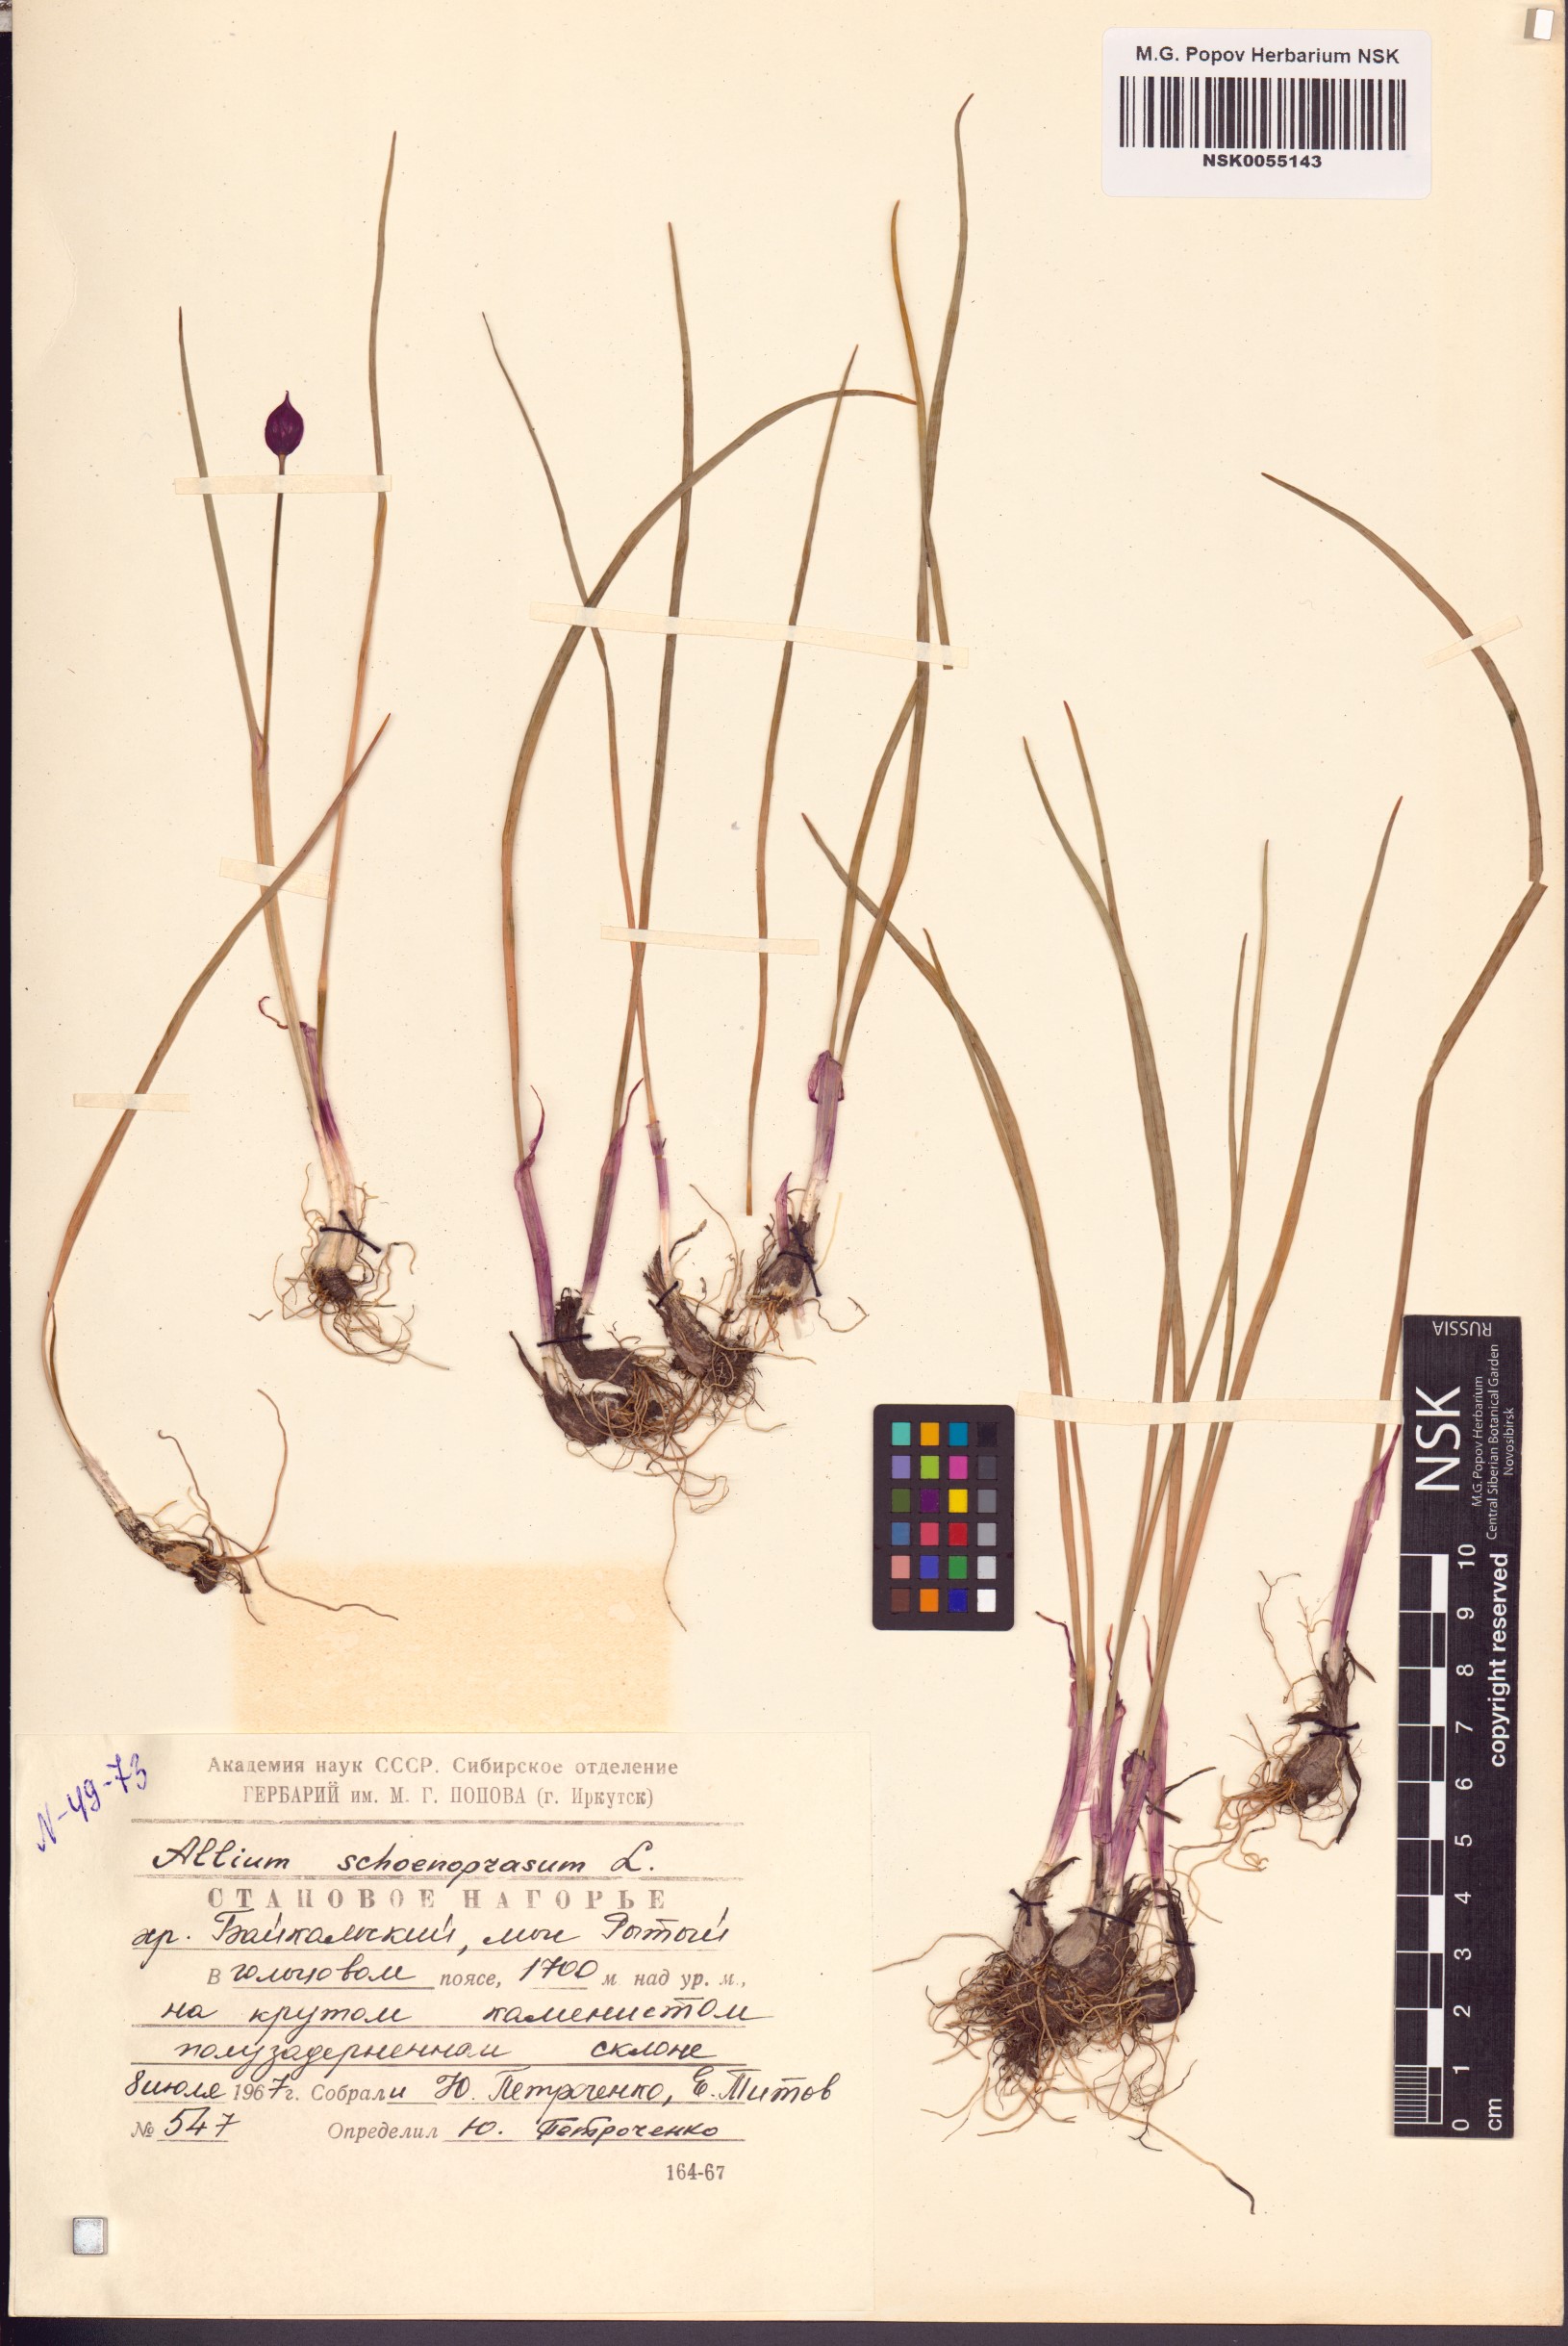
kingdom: Plantae
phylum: Tracheophyta
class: Liliopsida
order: Asparagales
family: Amaryllidaceae
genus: Allium
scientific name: Allium schoenoprasum
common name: Chives
